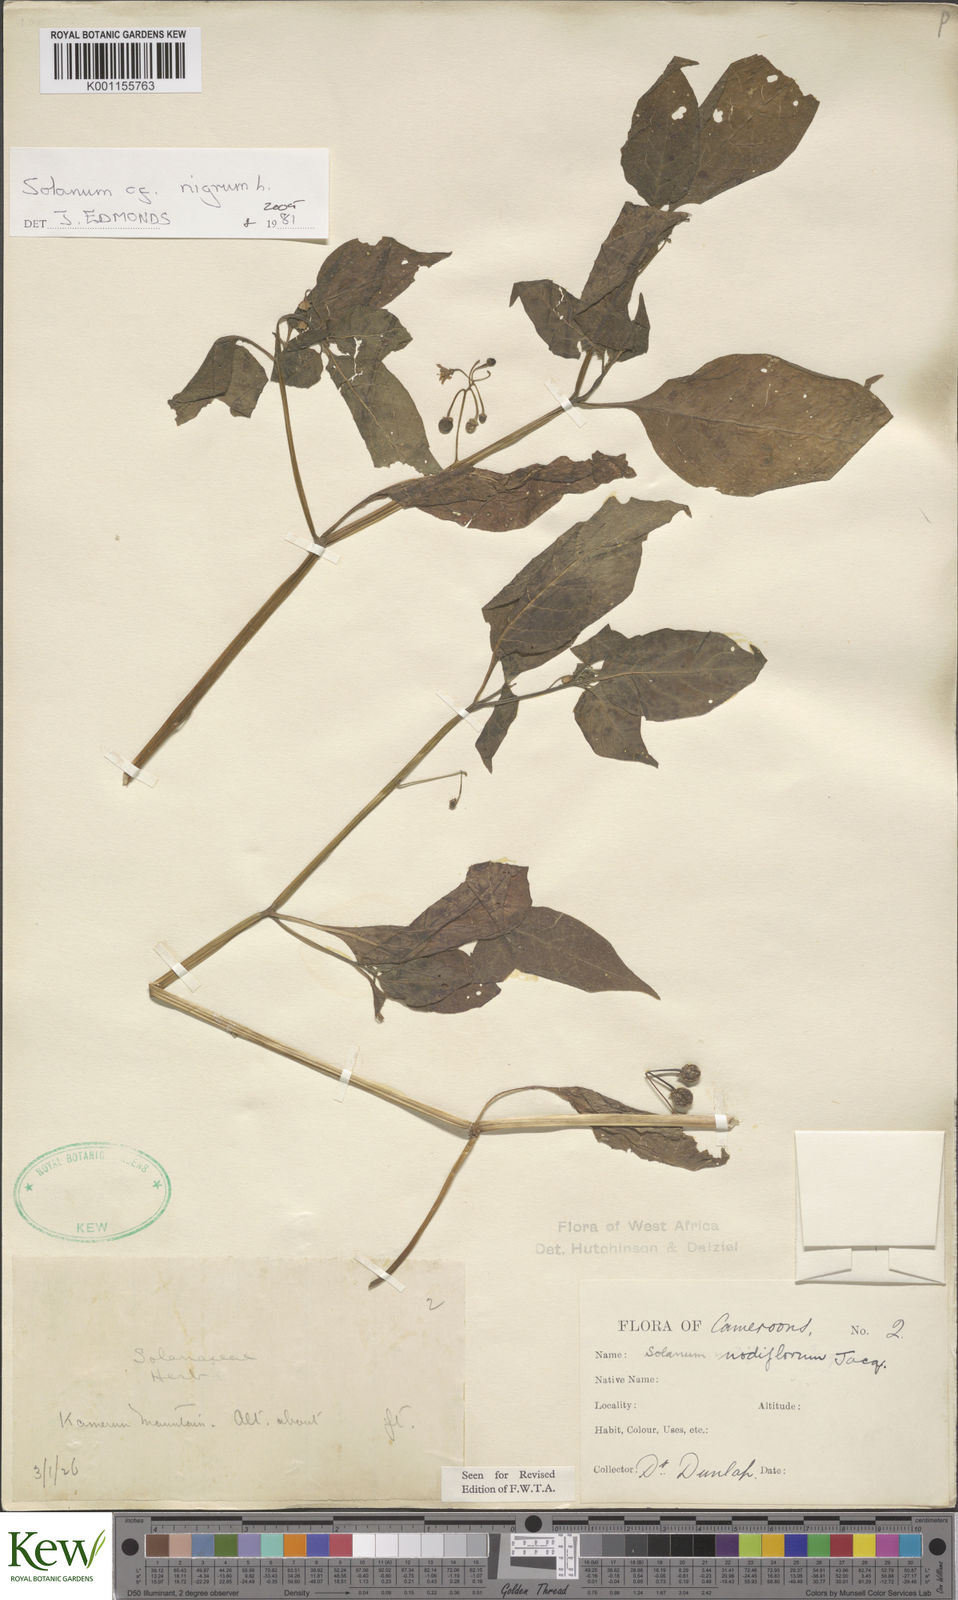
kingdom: Plantae
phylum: Tracheophyta
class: Magnoliopsida
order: Solanales
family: Solanaceae
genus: Solanum
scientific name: Solanum tarderemotum
